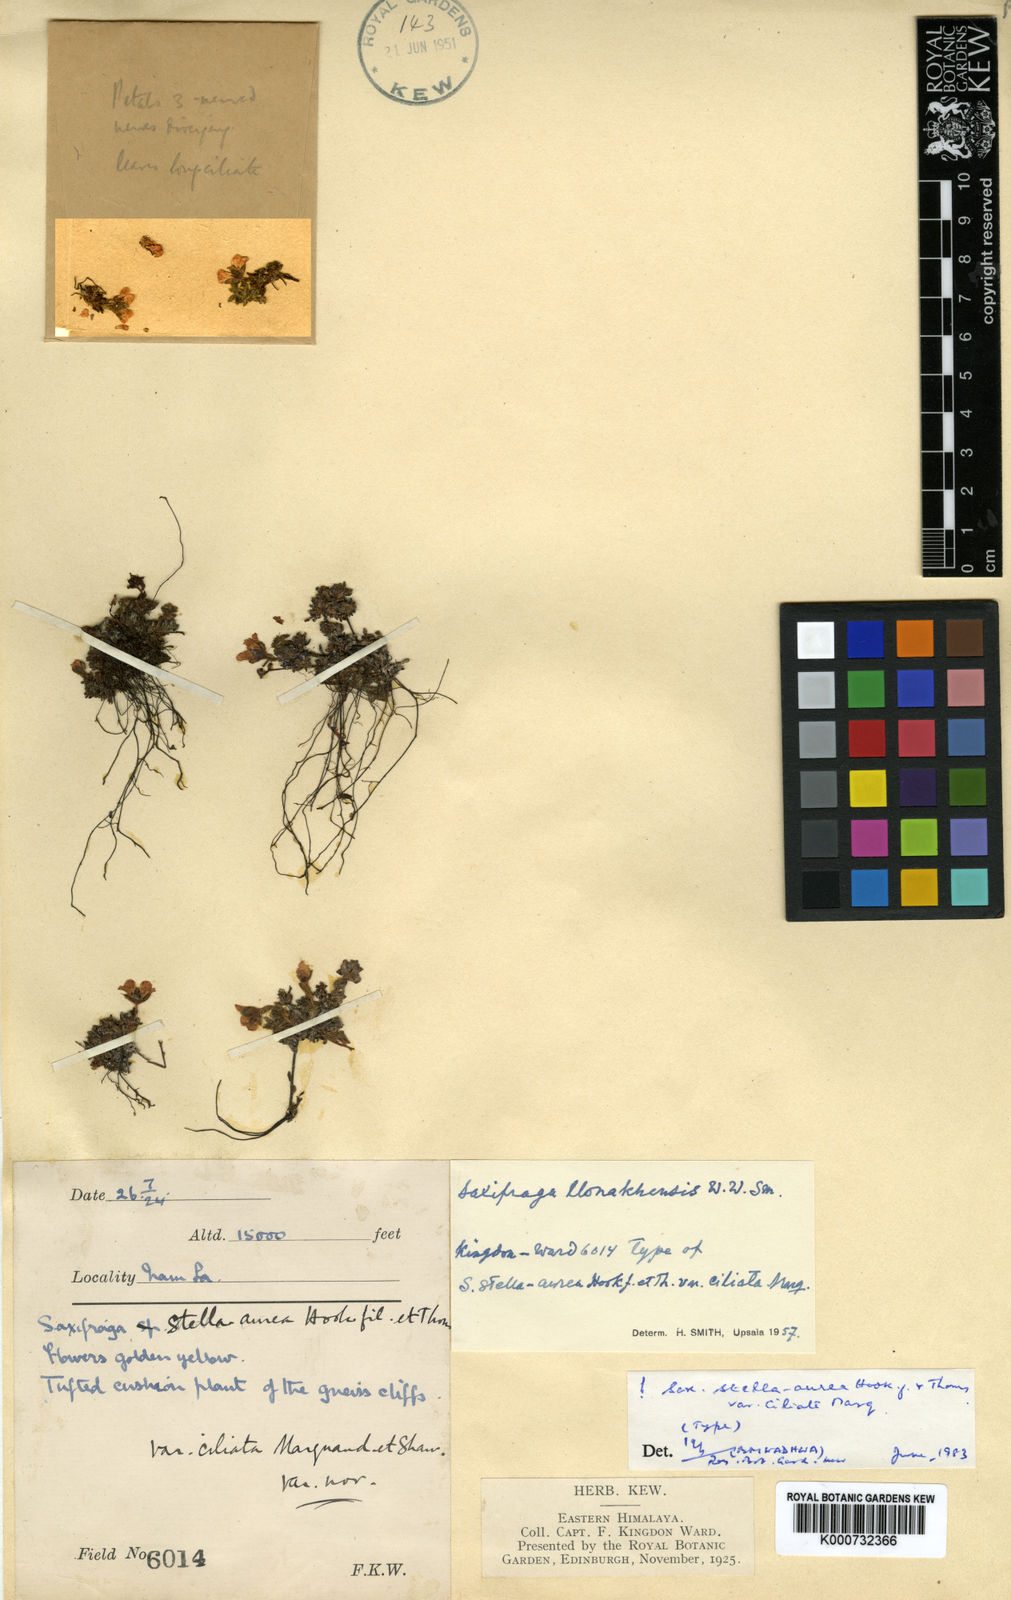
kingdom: Plantae
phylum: Tracheophyta
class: Magnoliopsida
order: Saxifragales
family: Saxifragaceae
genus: Saxifraga
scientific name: Saxifraga
